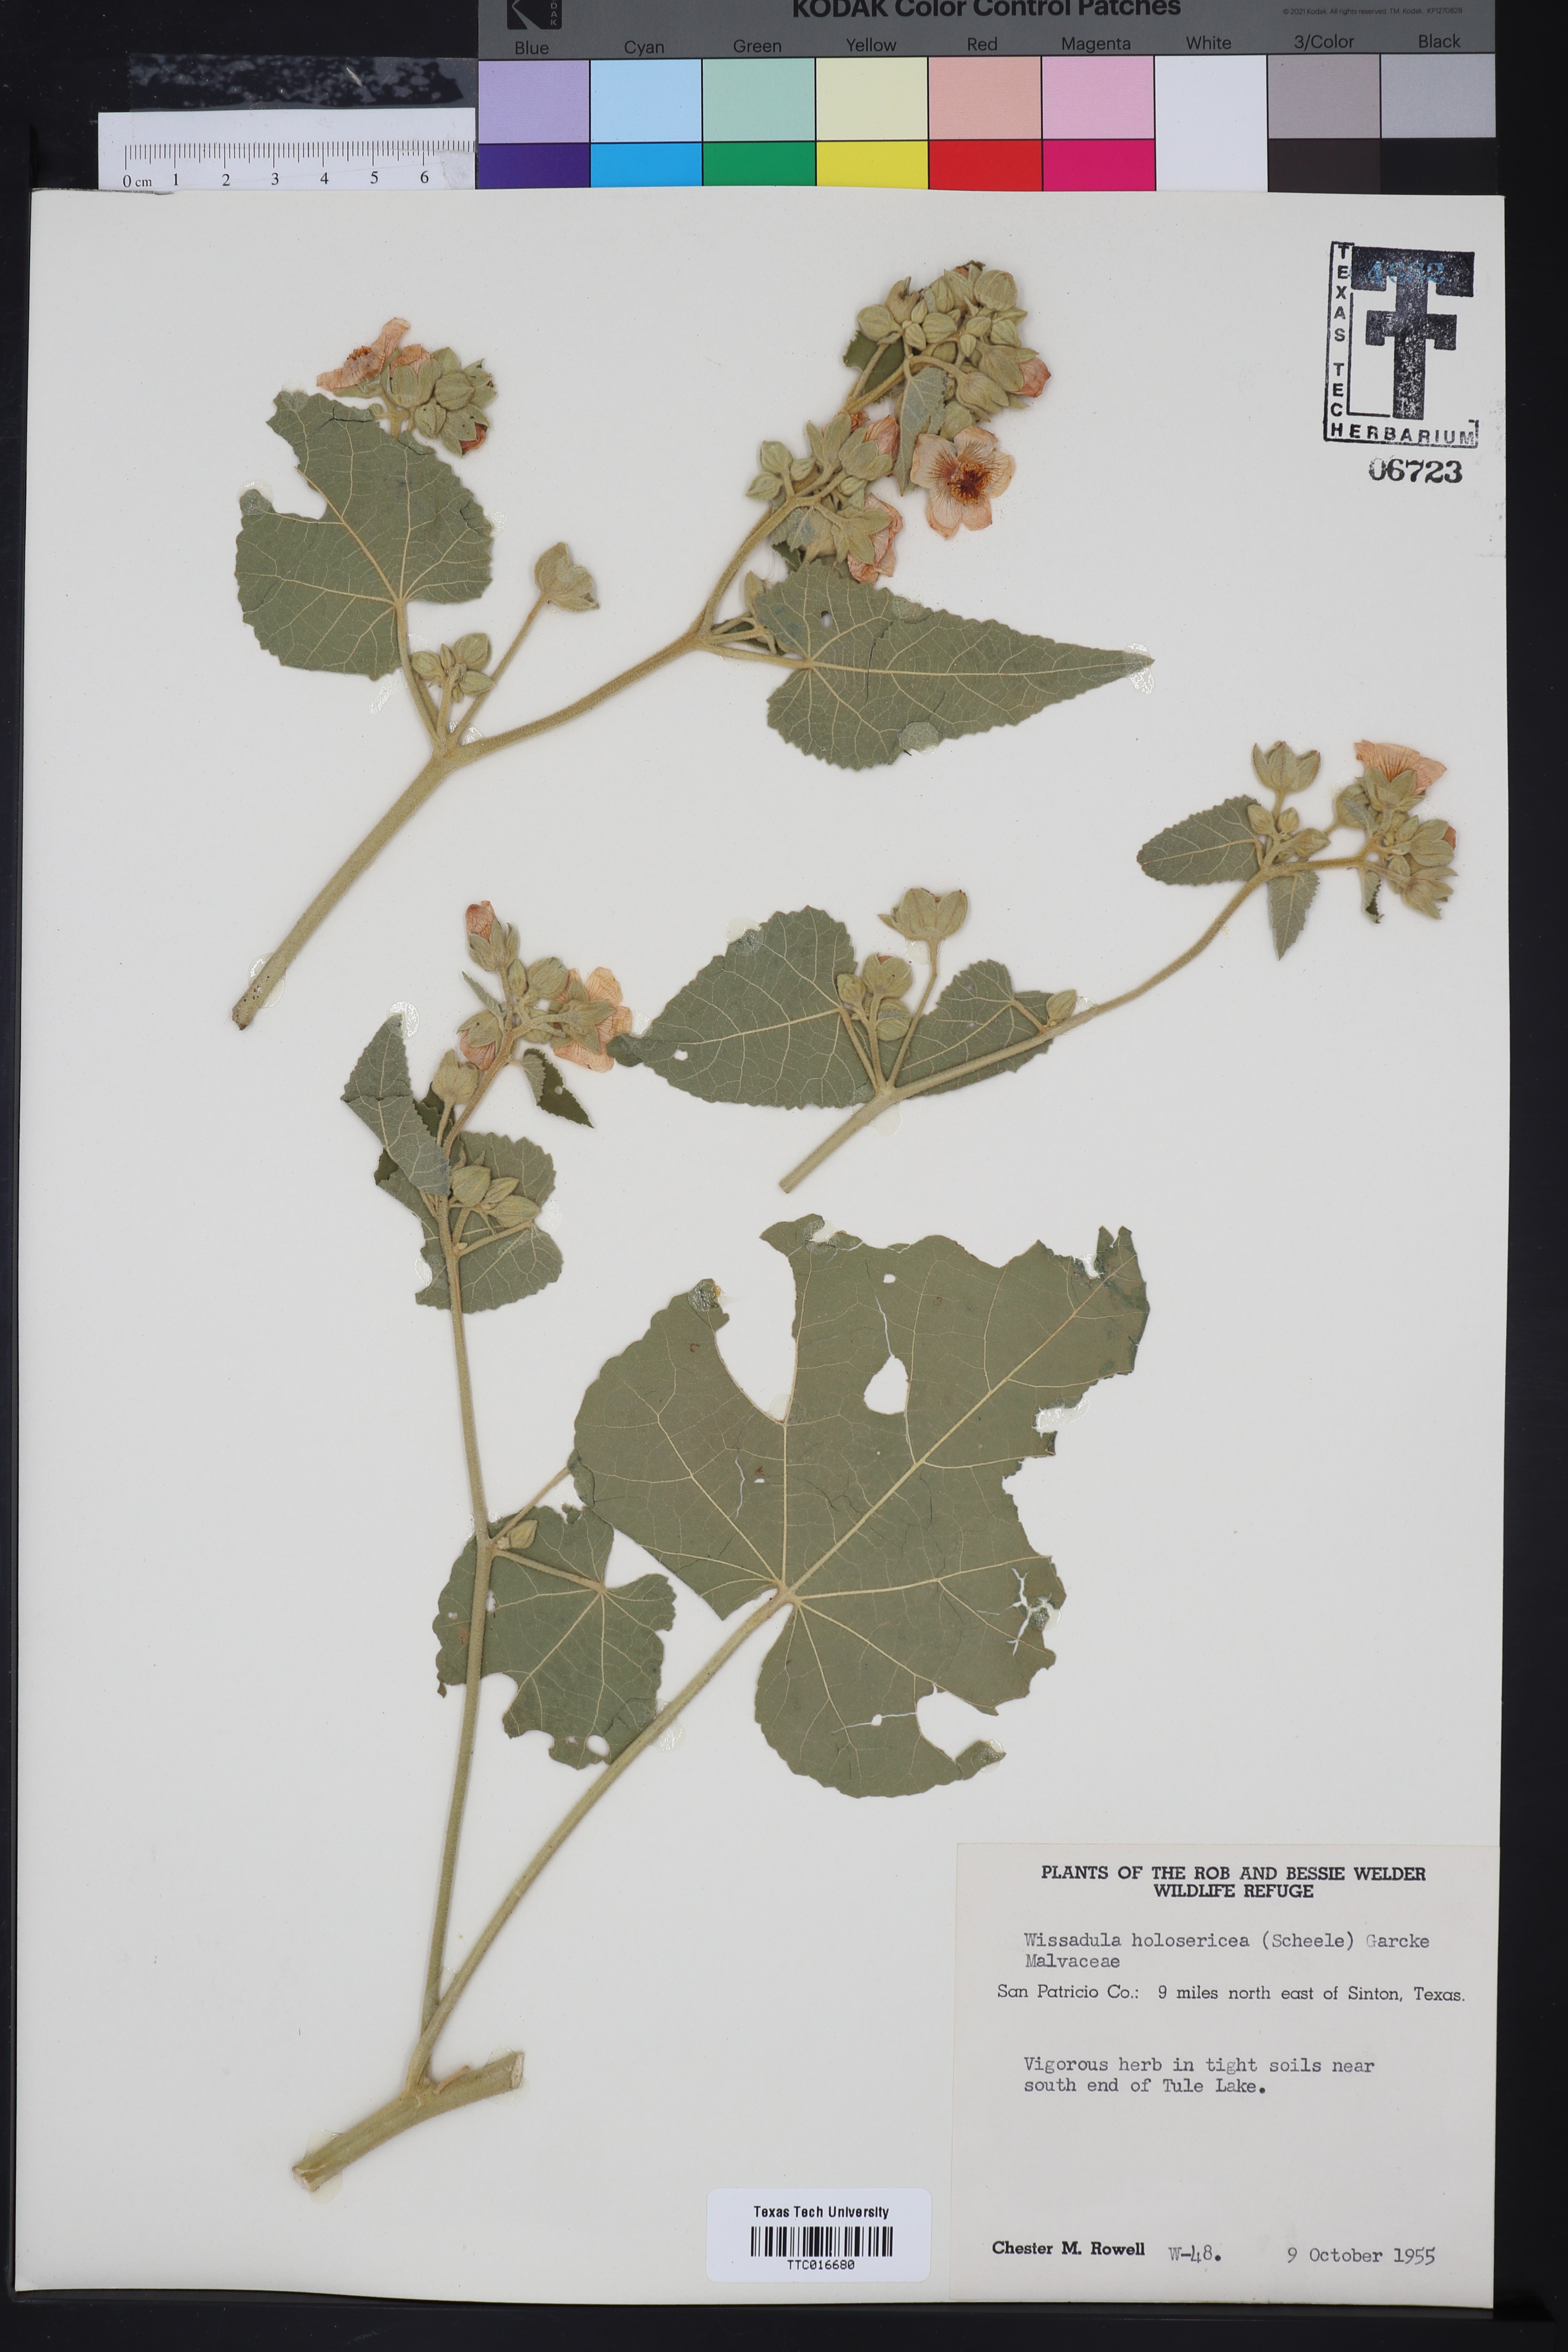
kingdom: Plantae
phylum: Tracheophyta
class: Magnoliopsida
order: Malvales
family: Malvaceae
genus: Allowissadula
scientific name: Allowissadula holosericea
